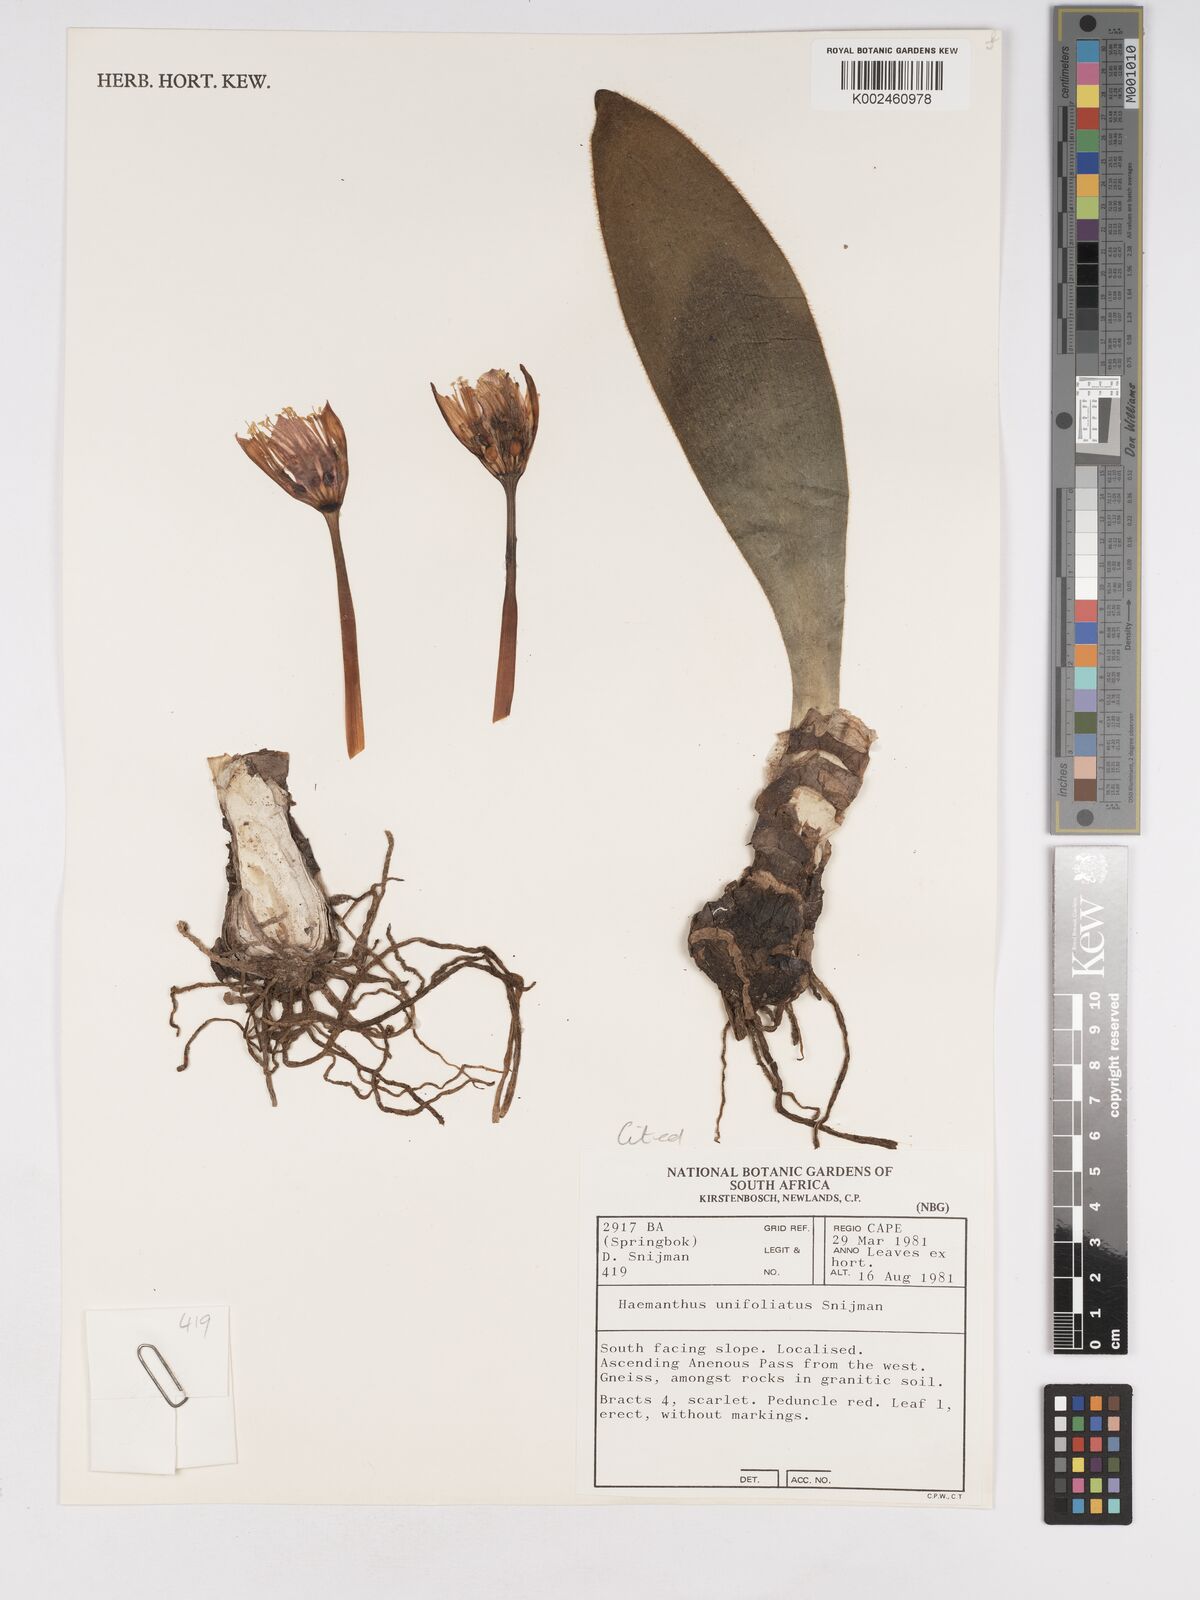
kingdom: Plantae
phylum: Tracheophyta
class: Liliopsida
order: Asparagales
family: Amaryllidaceae
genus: Haemanthus
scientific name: Haemanthus unifoliatus
